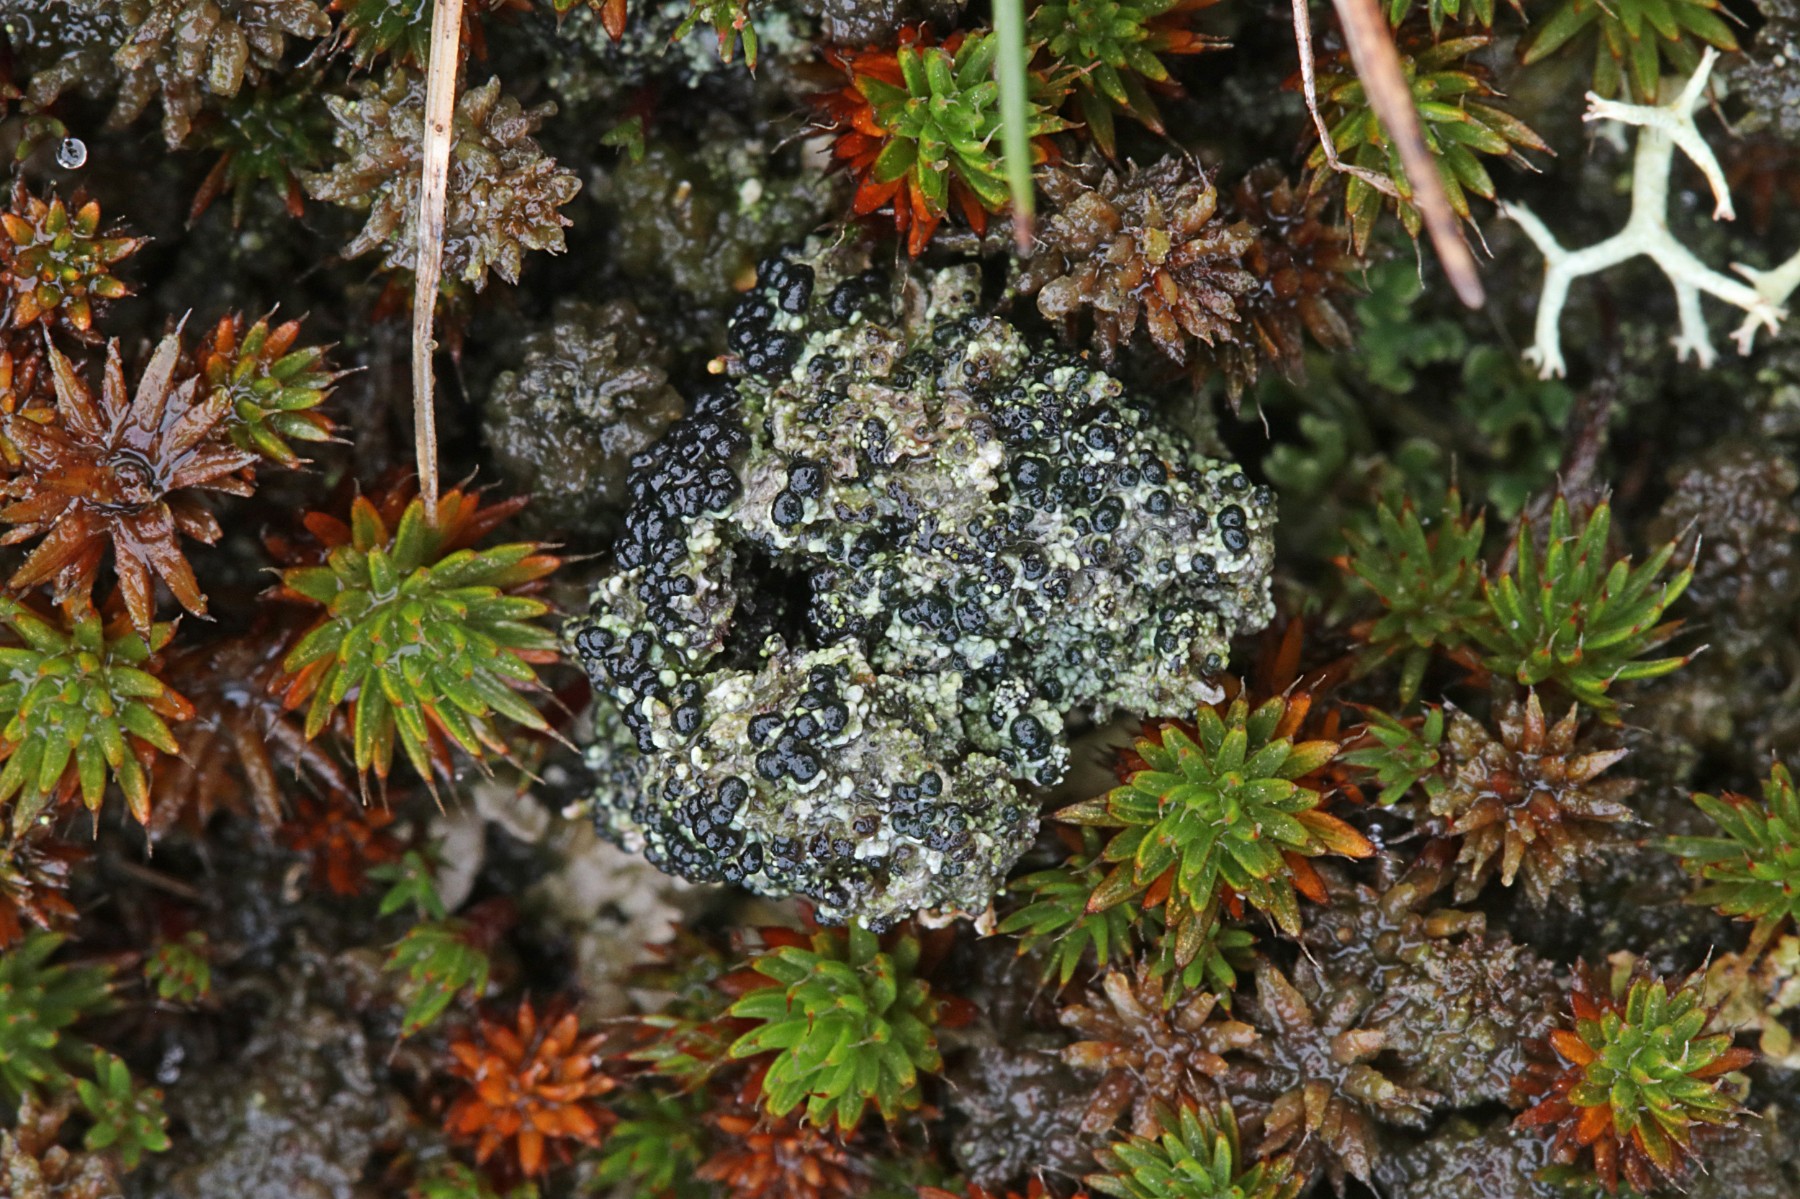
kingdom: Fungi
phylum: Ascomycota
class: Lecanoromycetes
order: Lecanorales
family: Byssolomataceae
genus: Micarea
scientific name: Micarea lignaria
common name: tørve-knaplav
